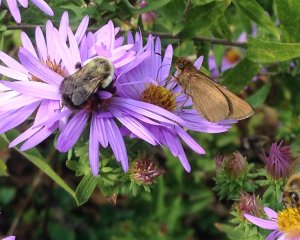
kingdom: Animalia
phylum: Arthropoda
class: Insecta
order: Lepidoptera
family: Hesperiidae
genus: Panoquina
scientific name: Panoquina ocola
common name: Ocola Skipper
